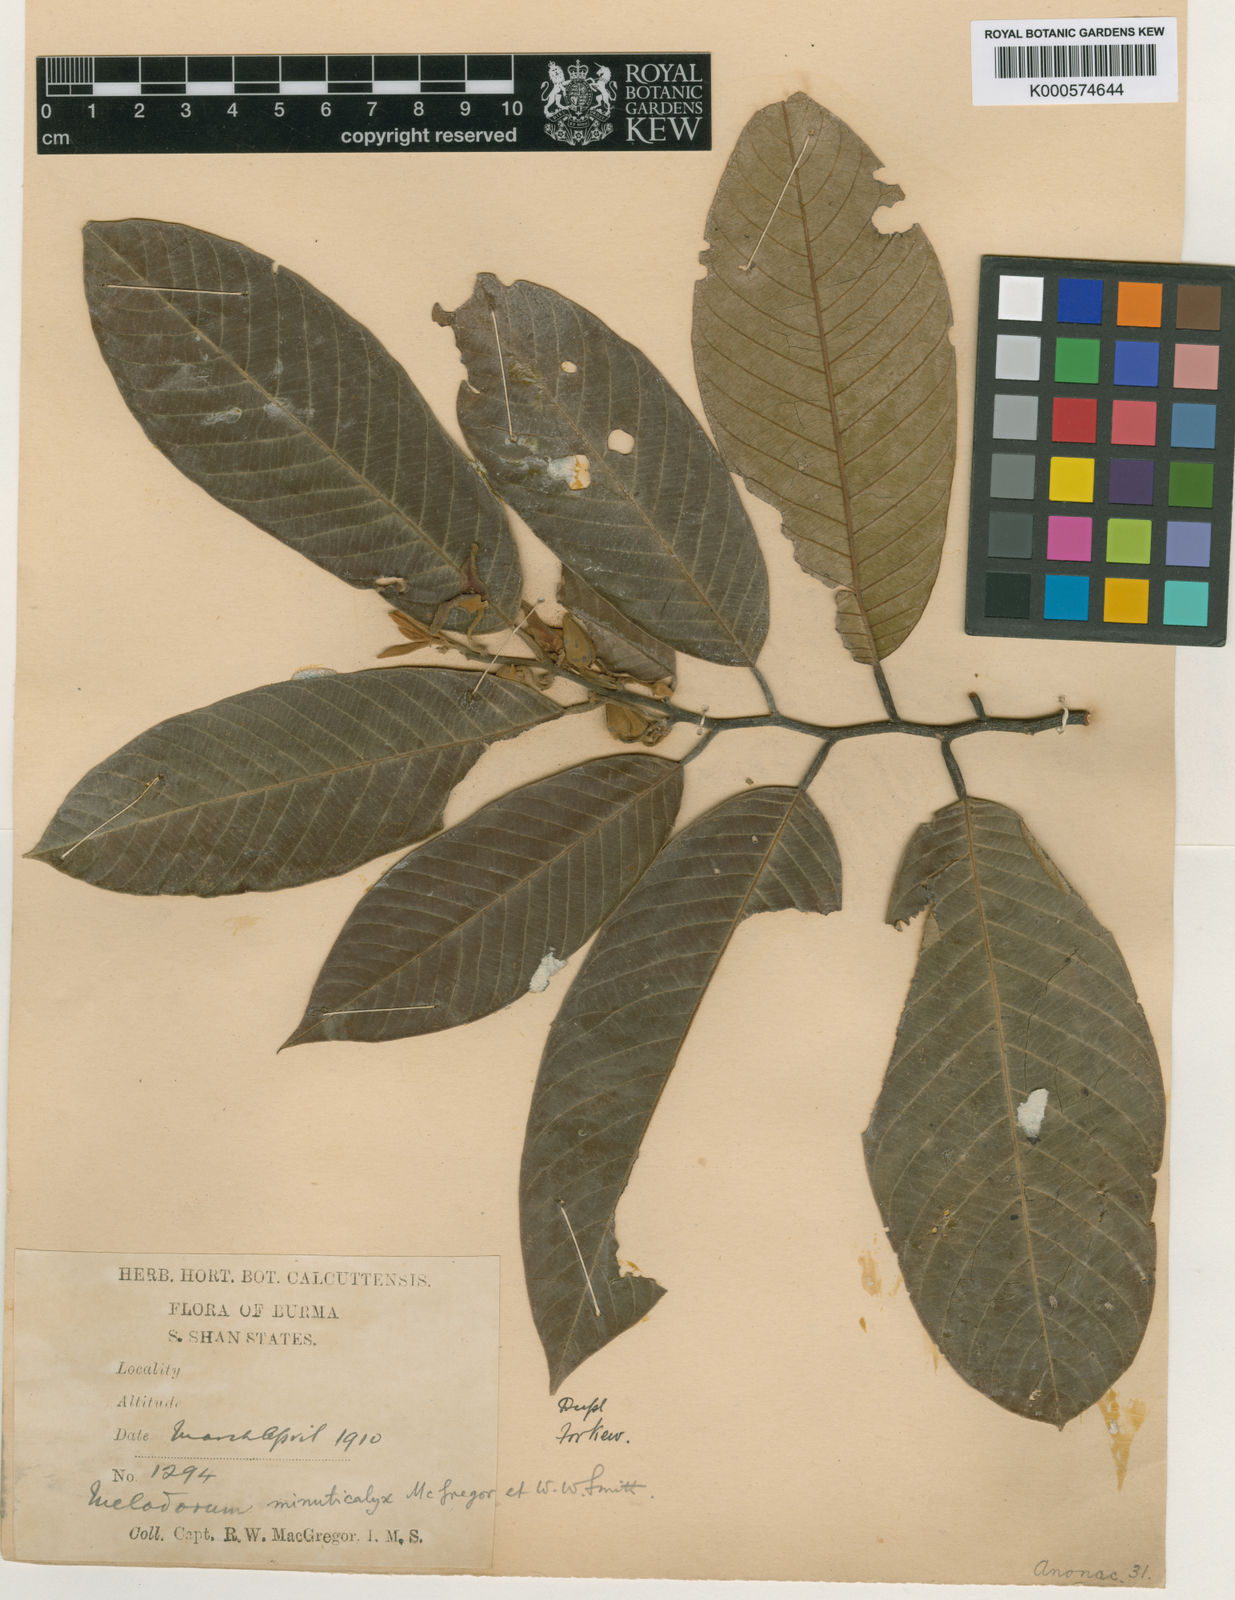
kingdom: Plantae
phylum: Tracheophyta
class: Magnoliopsida
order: Magnoliales
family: Annonaceae
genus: Fissistigma
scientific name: Fissistigma polyanthoides
